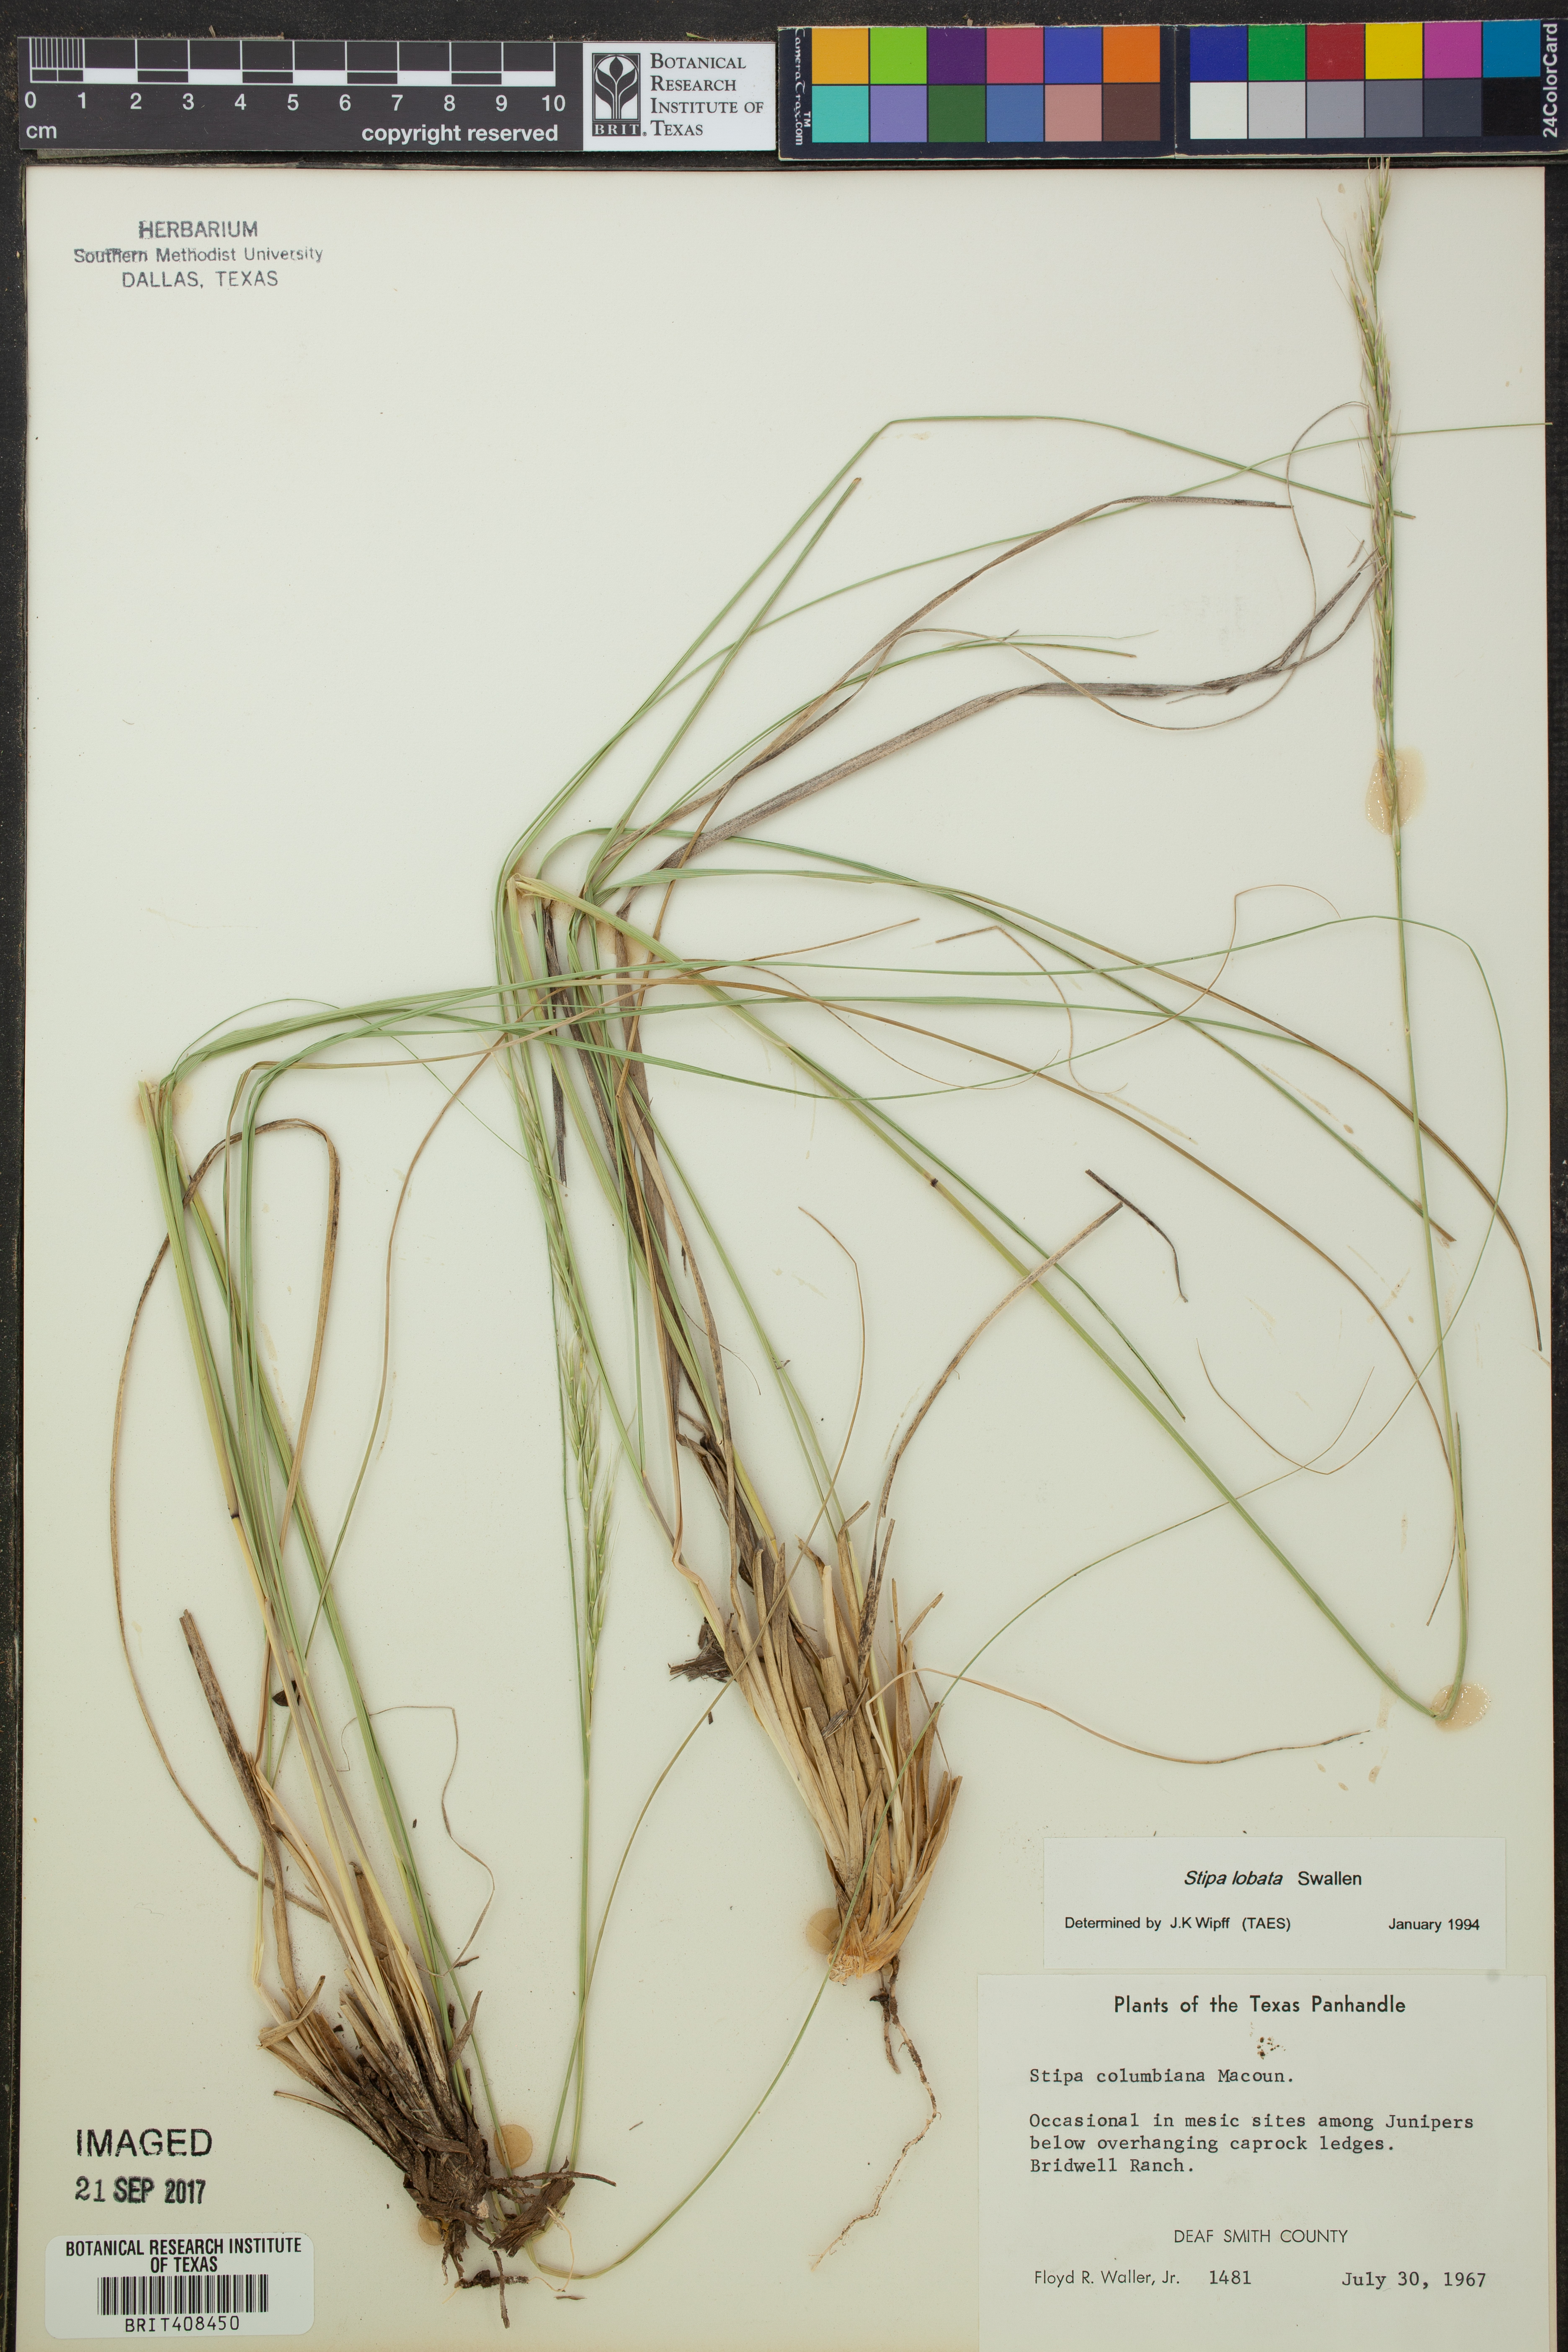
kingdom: Plantae
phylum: Tracheophyta
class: Liliopsida
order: Poales
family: Poaceae
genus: Eriocoma
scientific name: Eriocoma lemmonii
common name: Lemmon's needlegrass
